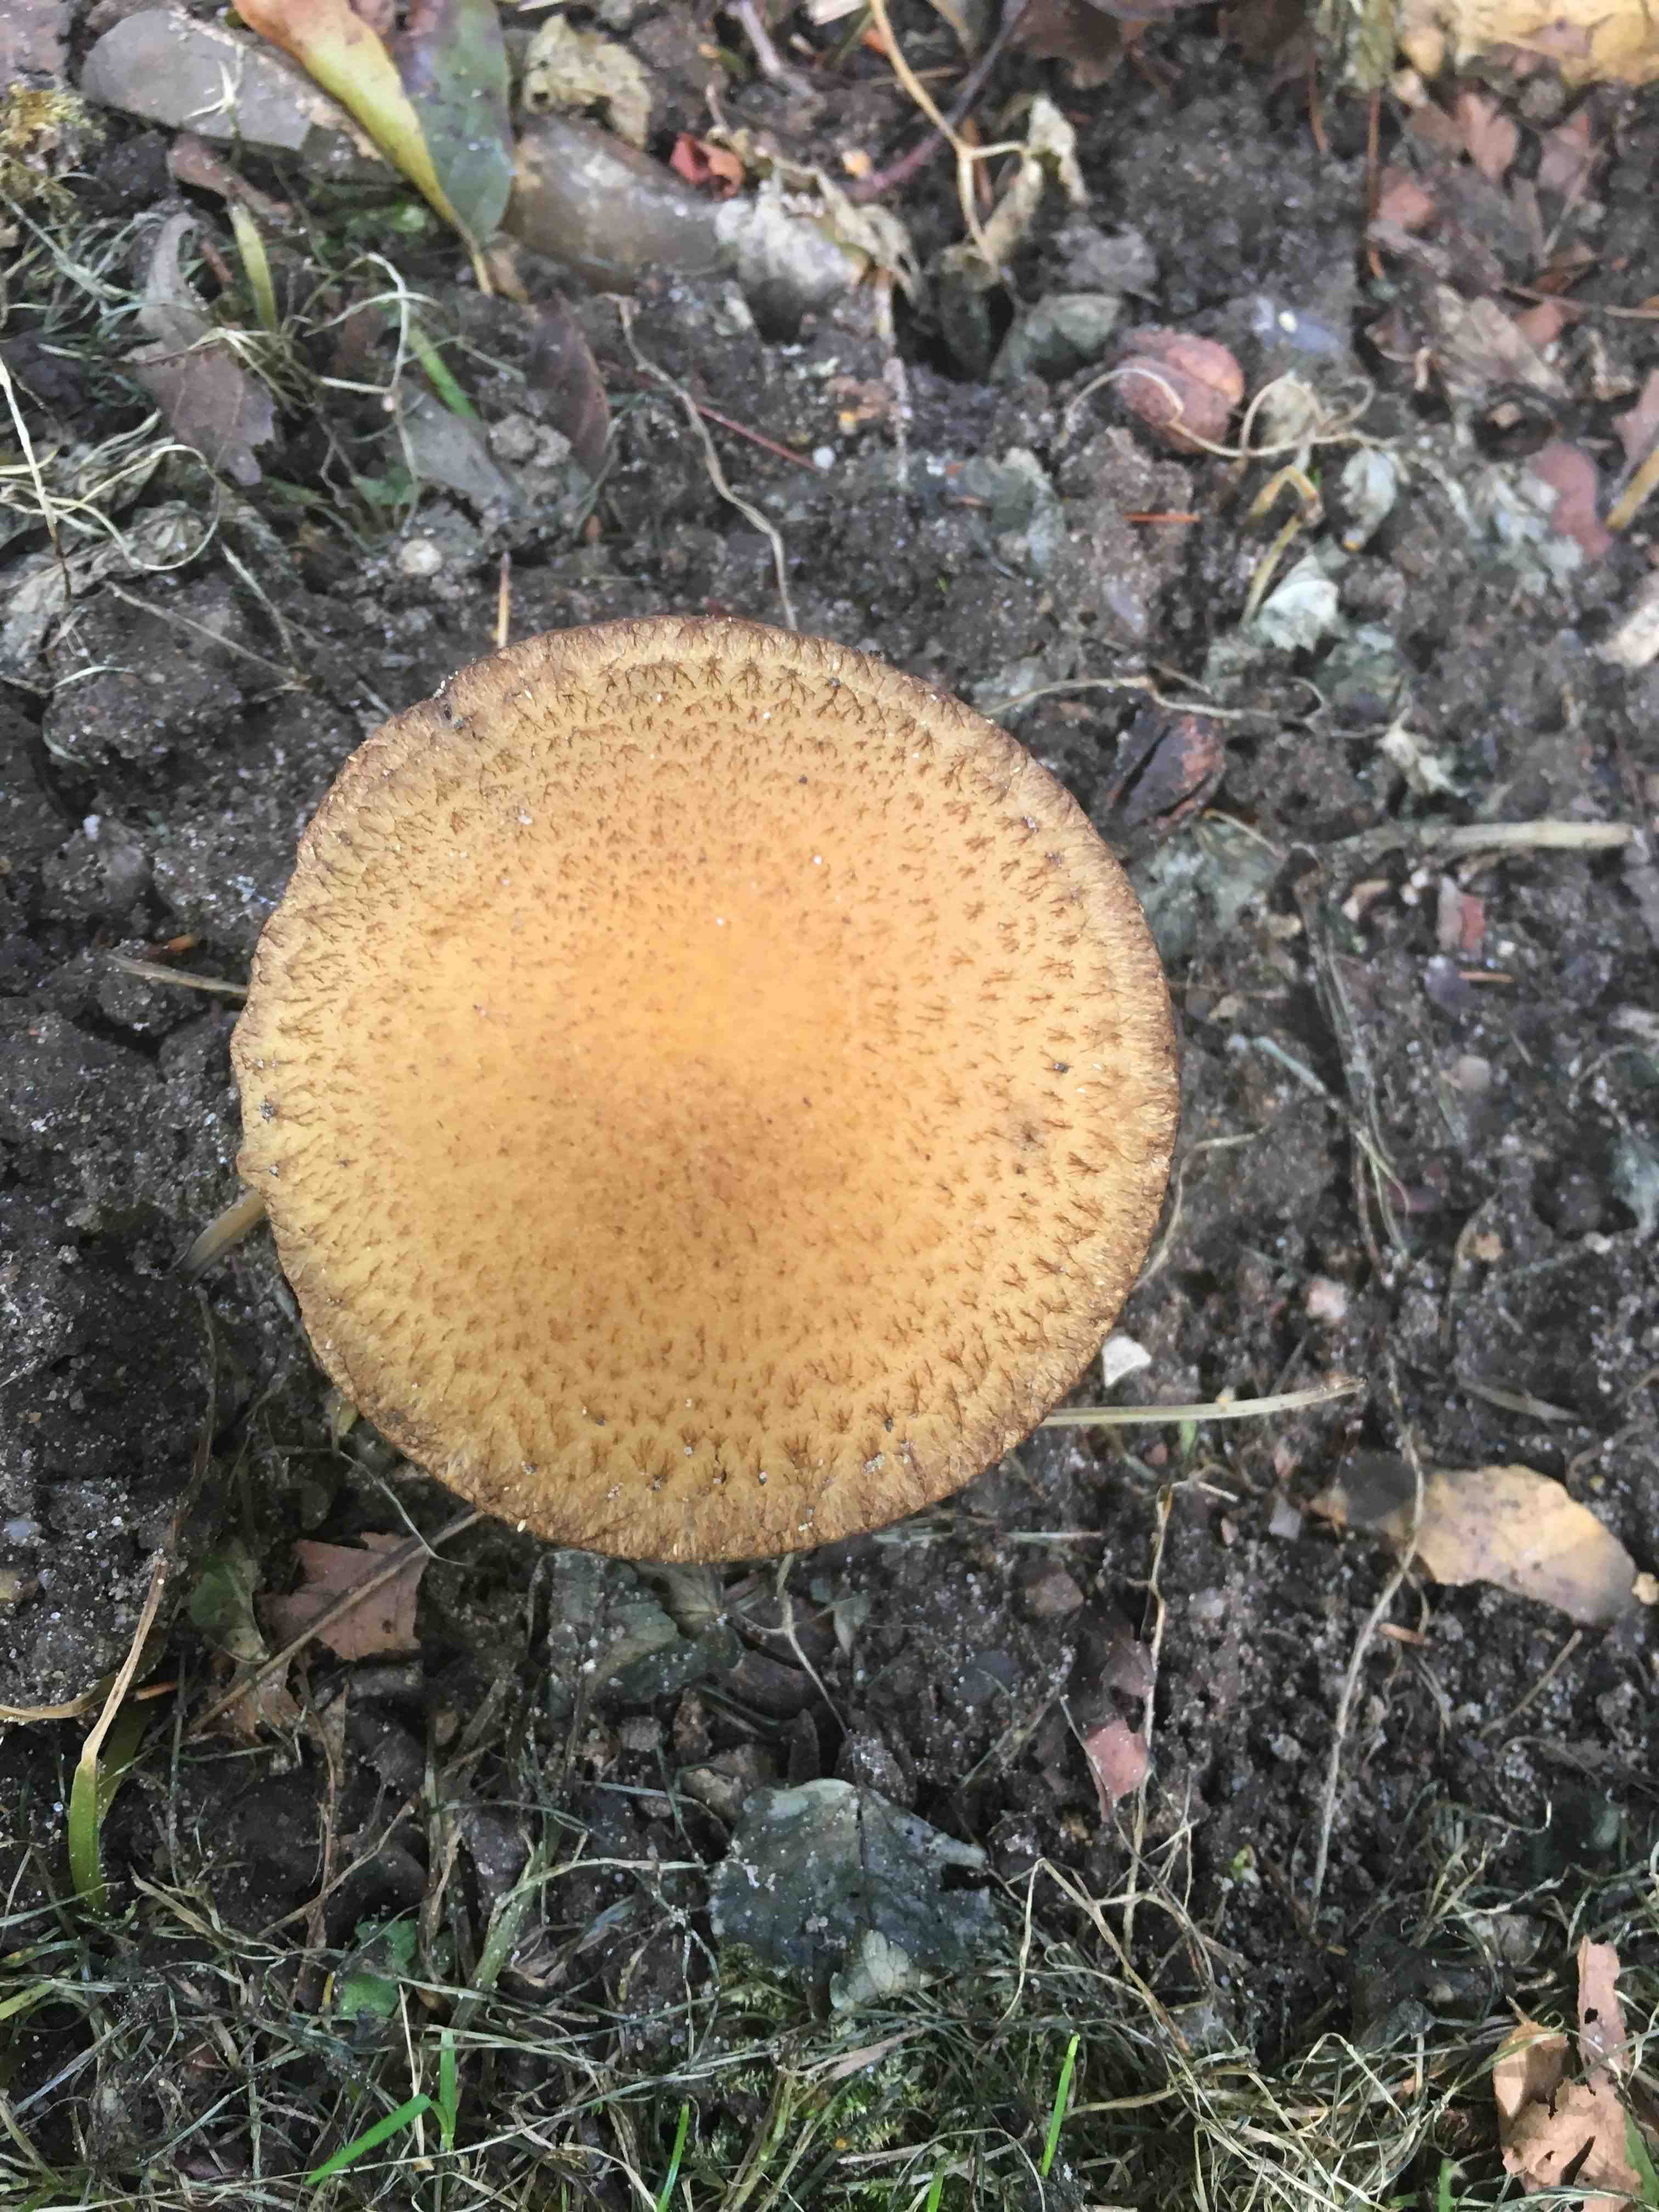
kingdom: Fungi
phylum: Basidiomycota
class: Agaricomycetes
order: Agaricales
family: Psathyrellaceae
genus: Lacrymaria
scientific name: Lacrymaria lacrymabunda
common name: grædende mørkhat
